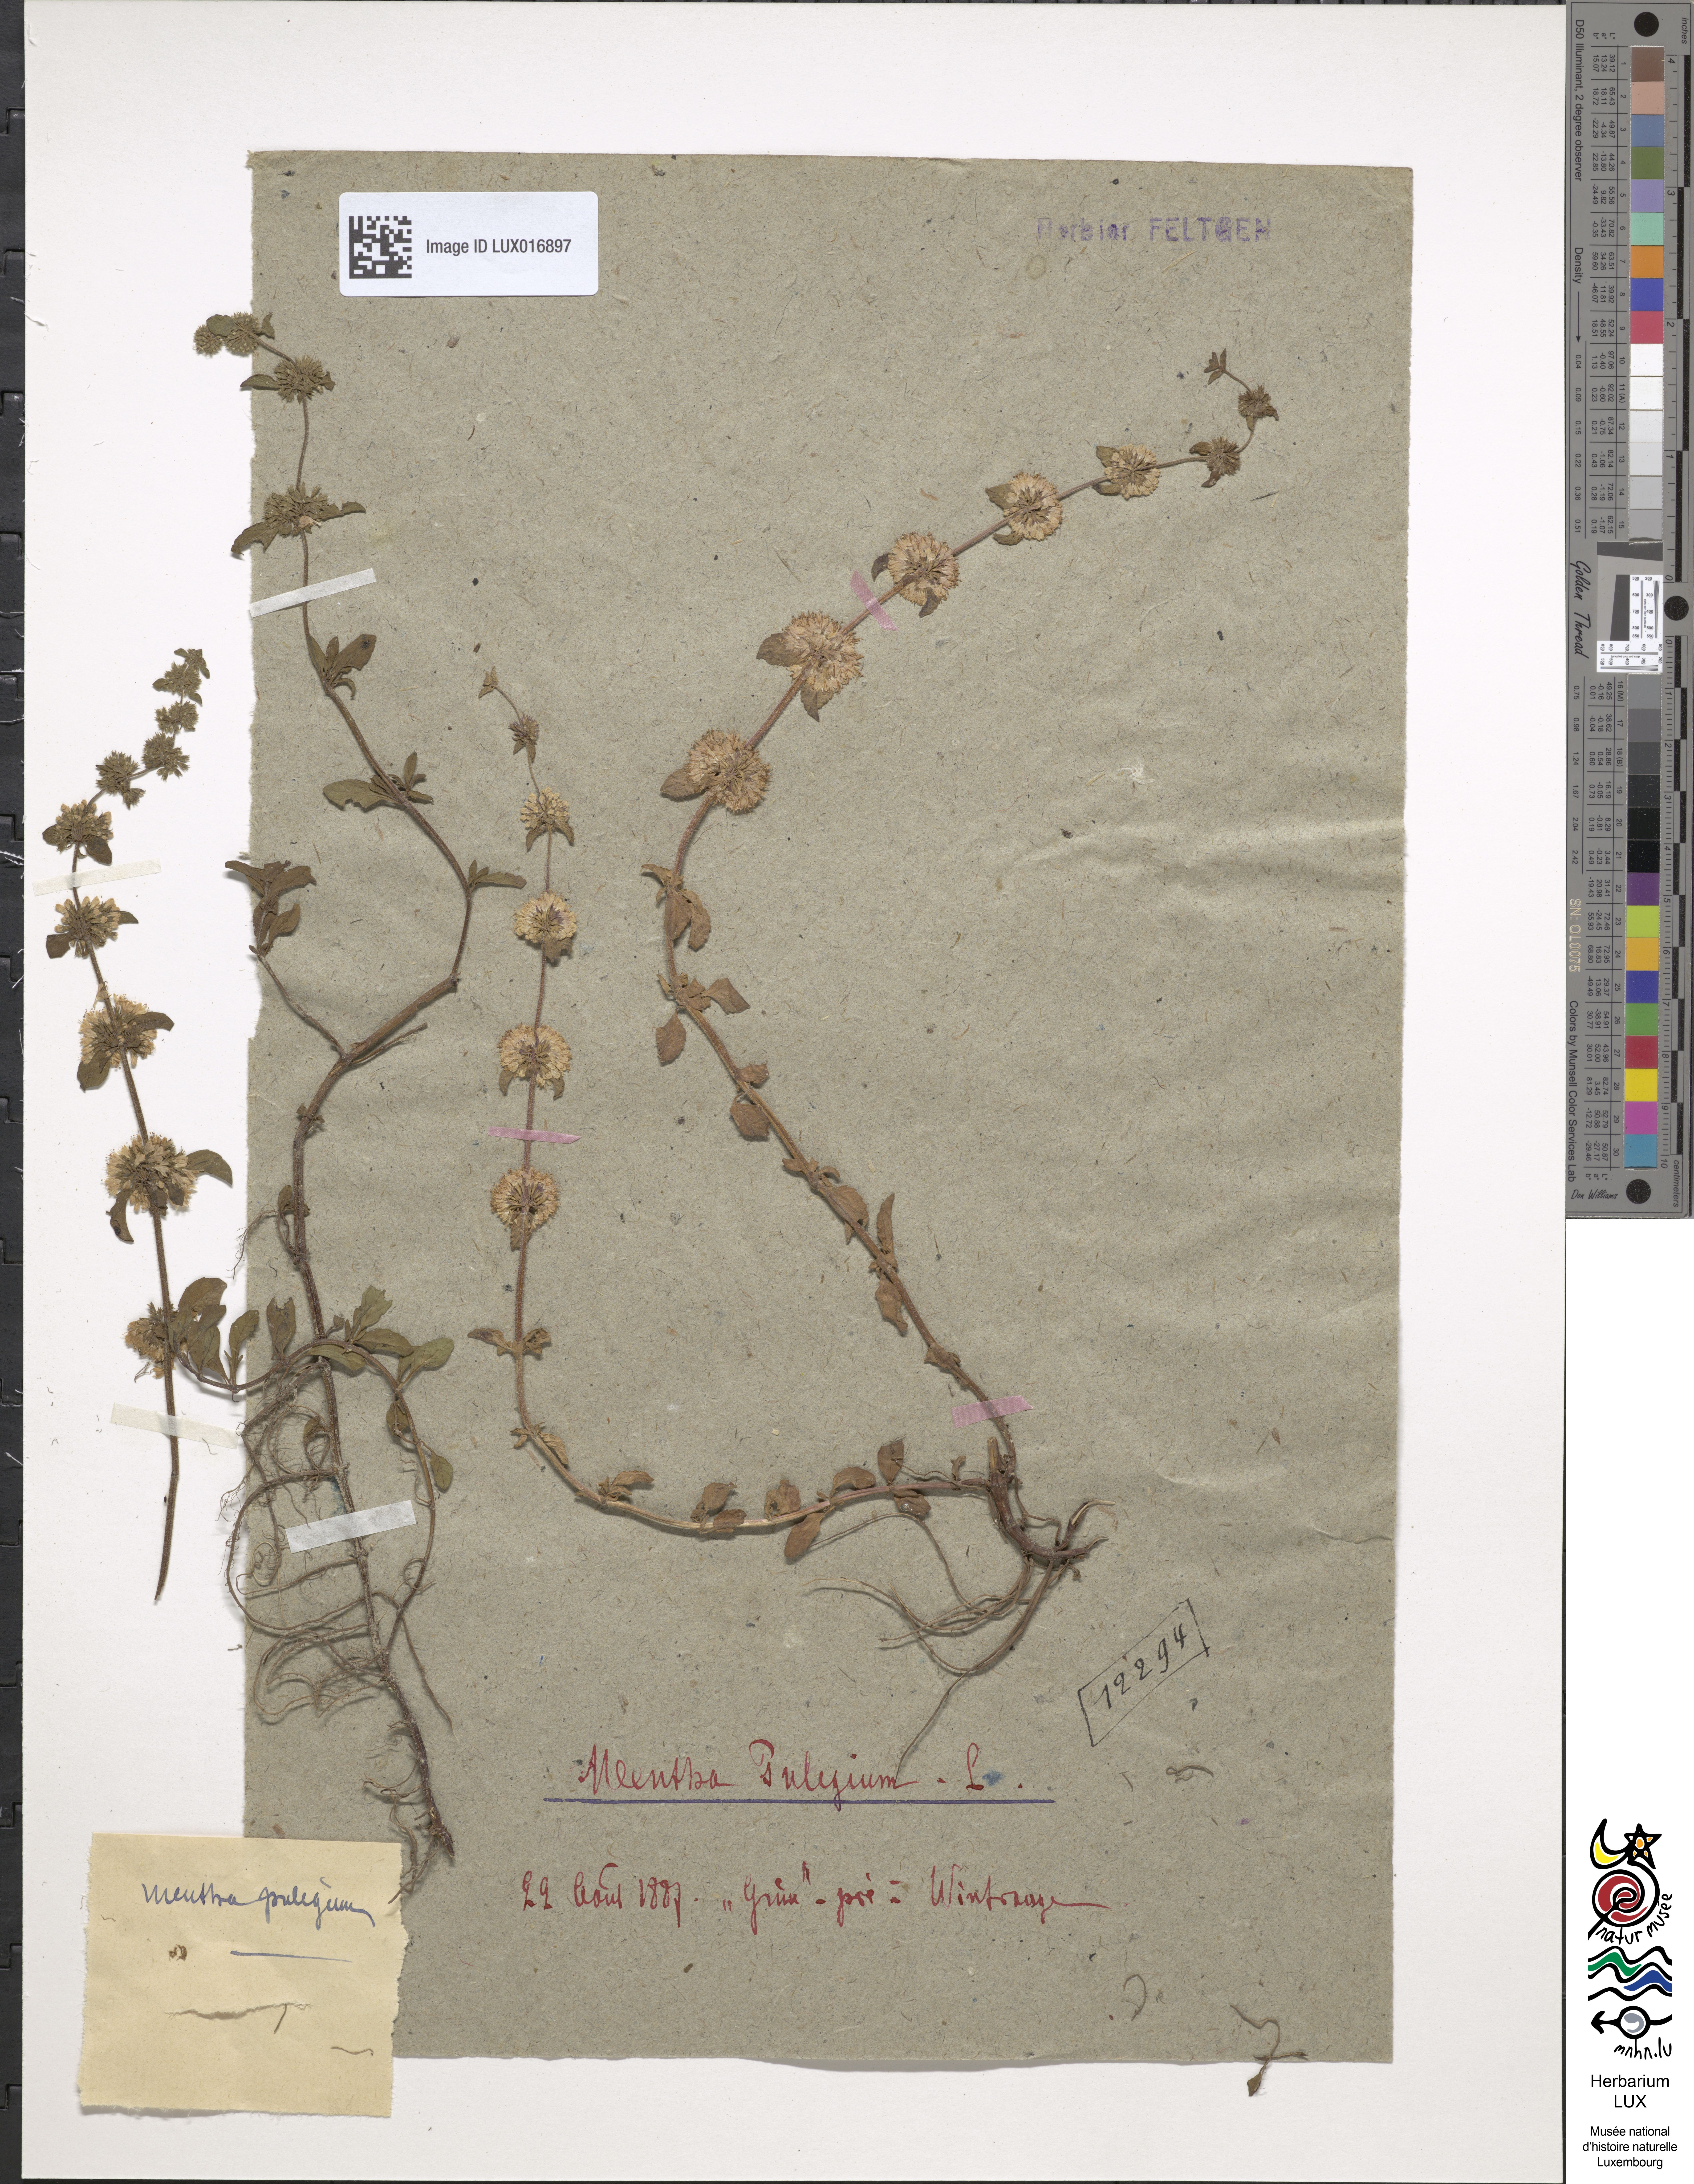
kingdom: Plantae
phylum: Tracheophyta
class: Magnoliopsida
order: Lamiales
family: Lamiaceae
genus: Mentha
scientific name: Mentha pulegium
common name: Pennyroyal
